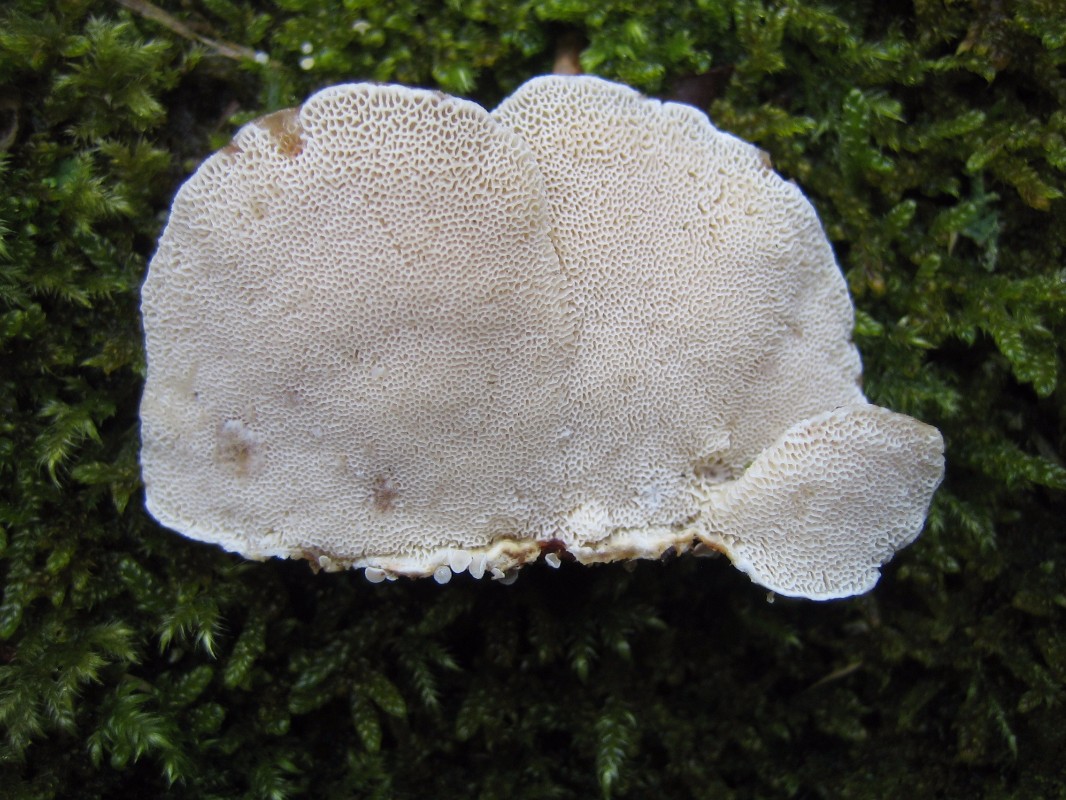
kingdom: Fungi
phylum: Basidiomycota
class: Agaricomycetes
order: Polyporales
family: Polyporaceae
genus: Trametes
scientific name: Trametes ochracea
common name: bæltet læderporesvamp
